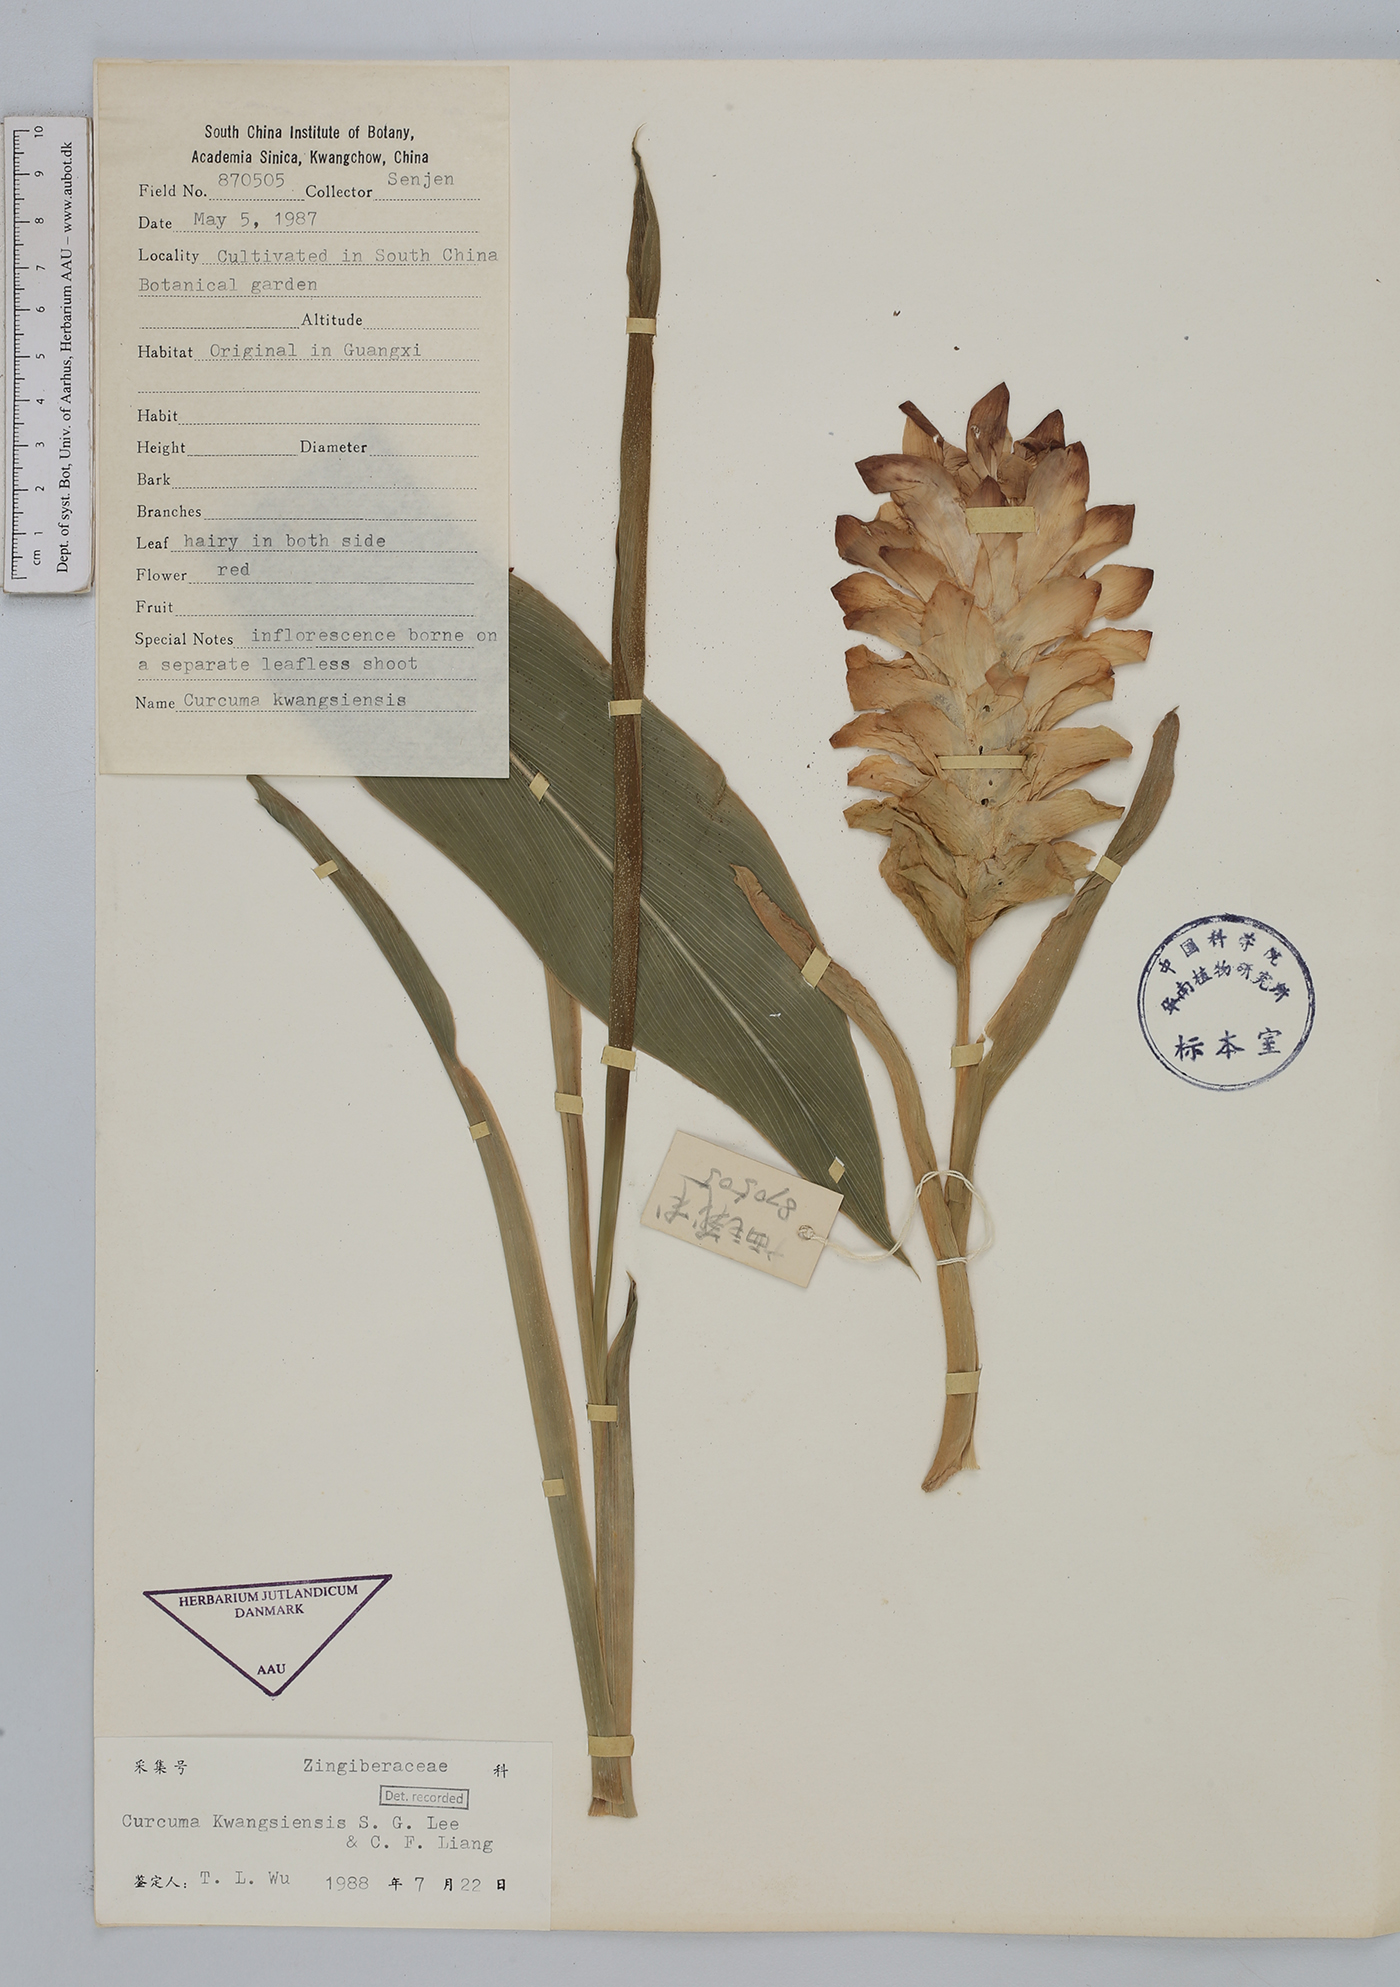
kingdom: Plantae
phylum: Tracheophyta
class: Liliopsida
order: Zingiberales
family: Zingiberaceae
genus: Curcuma
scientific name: Curcuma kwangsiensis
